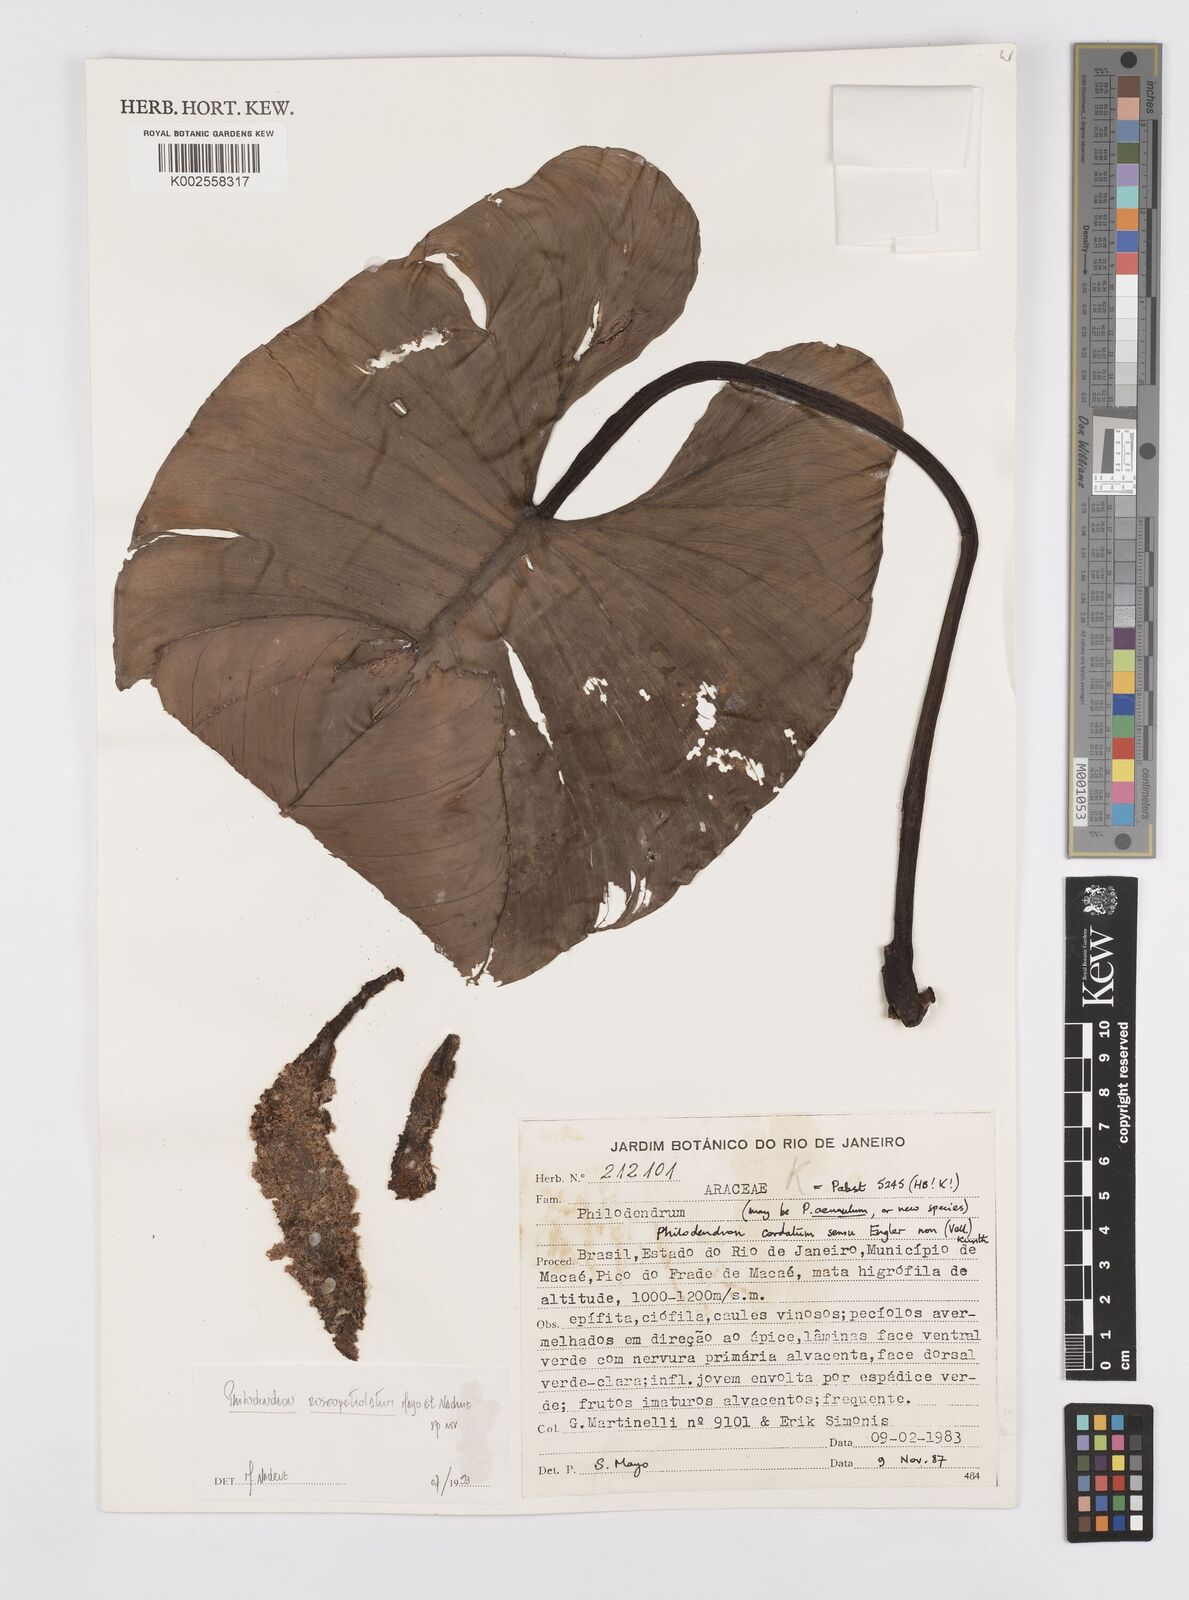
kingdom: Plantae
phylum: Tracheophyta
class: Liliopsida
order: Alismatales
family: Araceae
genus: Philodendron
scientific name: Philodendron roseopetiolatum
